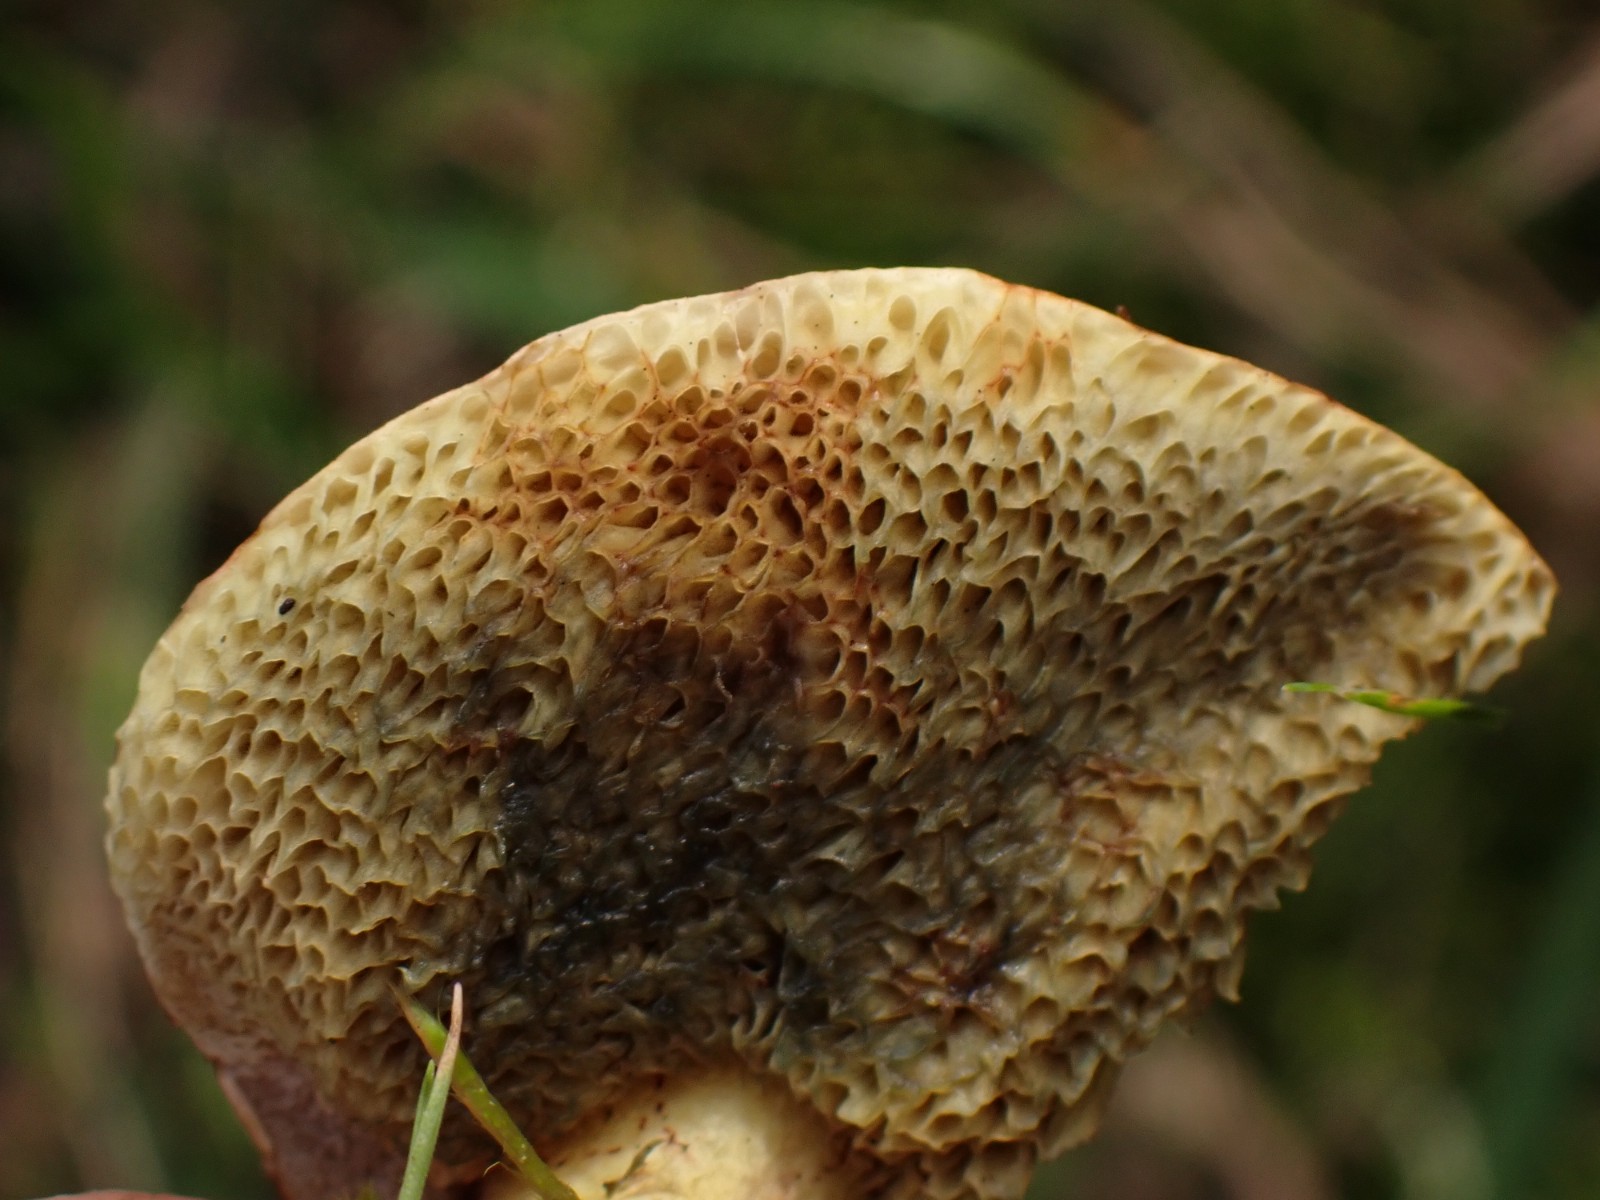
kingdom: Fungi
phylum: Basidiomycota
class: Agaricomycetes
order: Boletales
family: Boletaceae
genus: Xerocomellus
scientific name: Xerocomellus
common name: dværgrørhat
